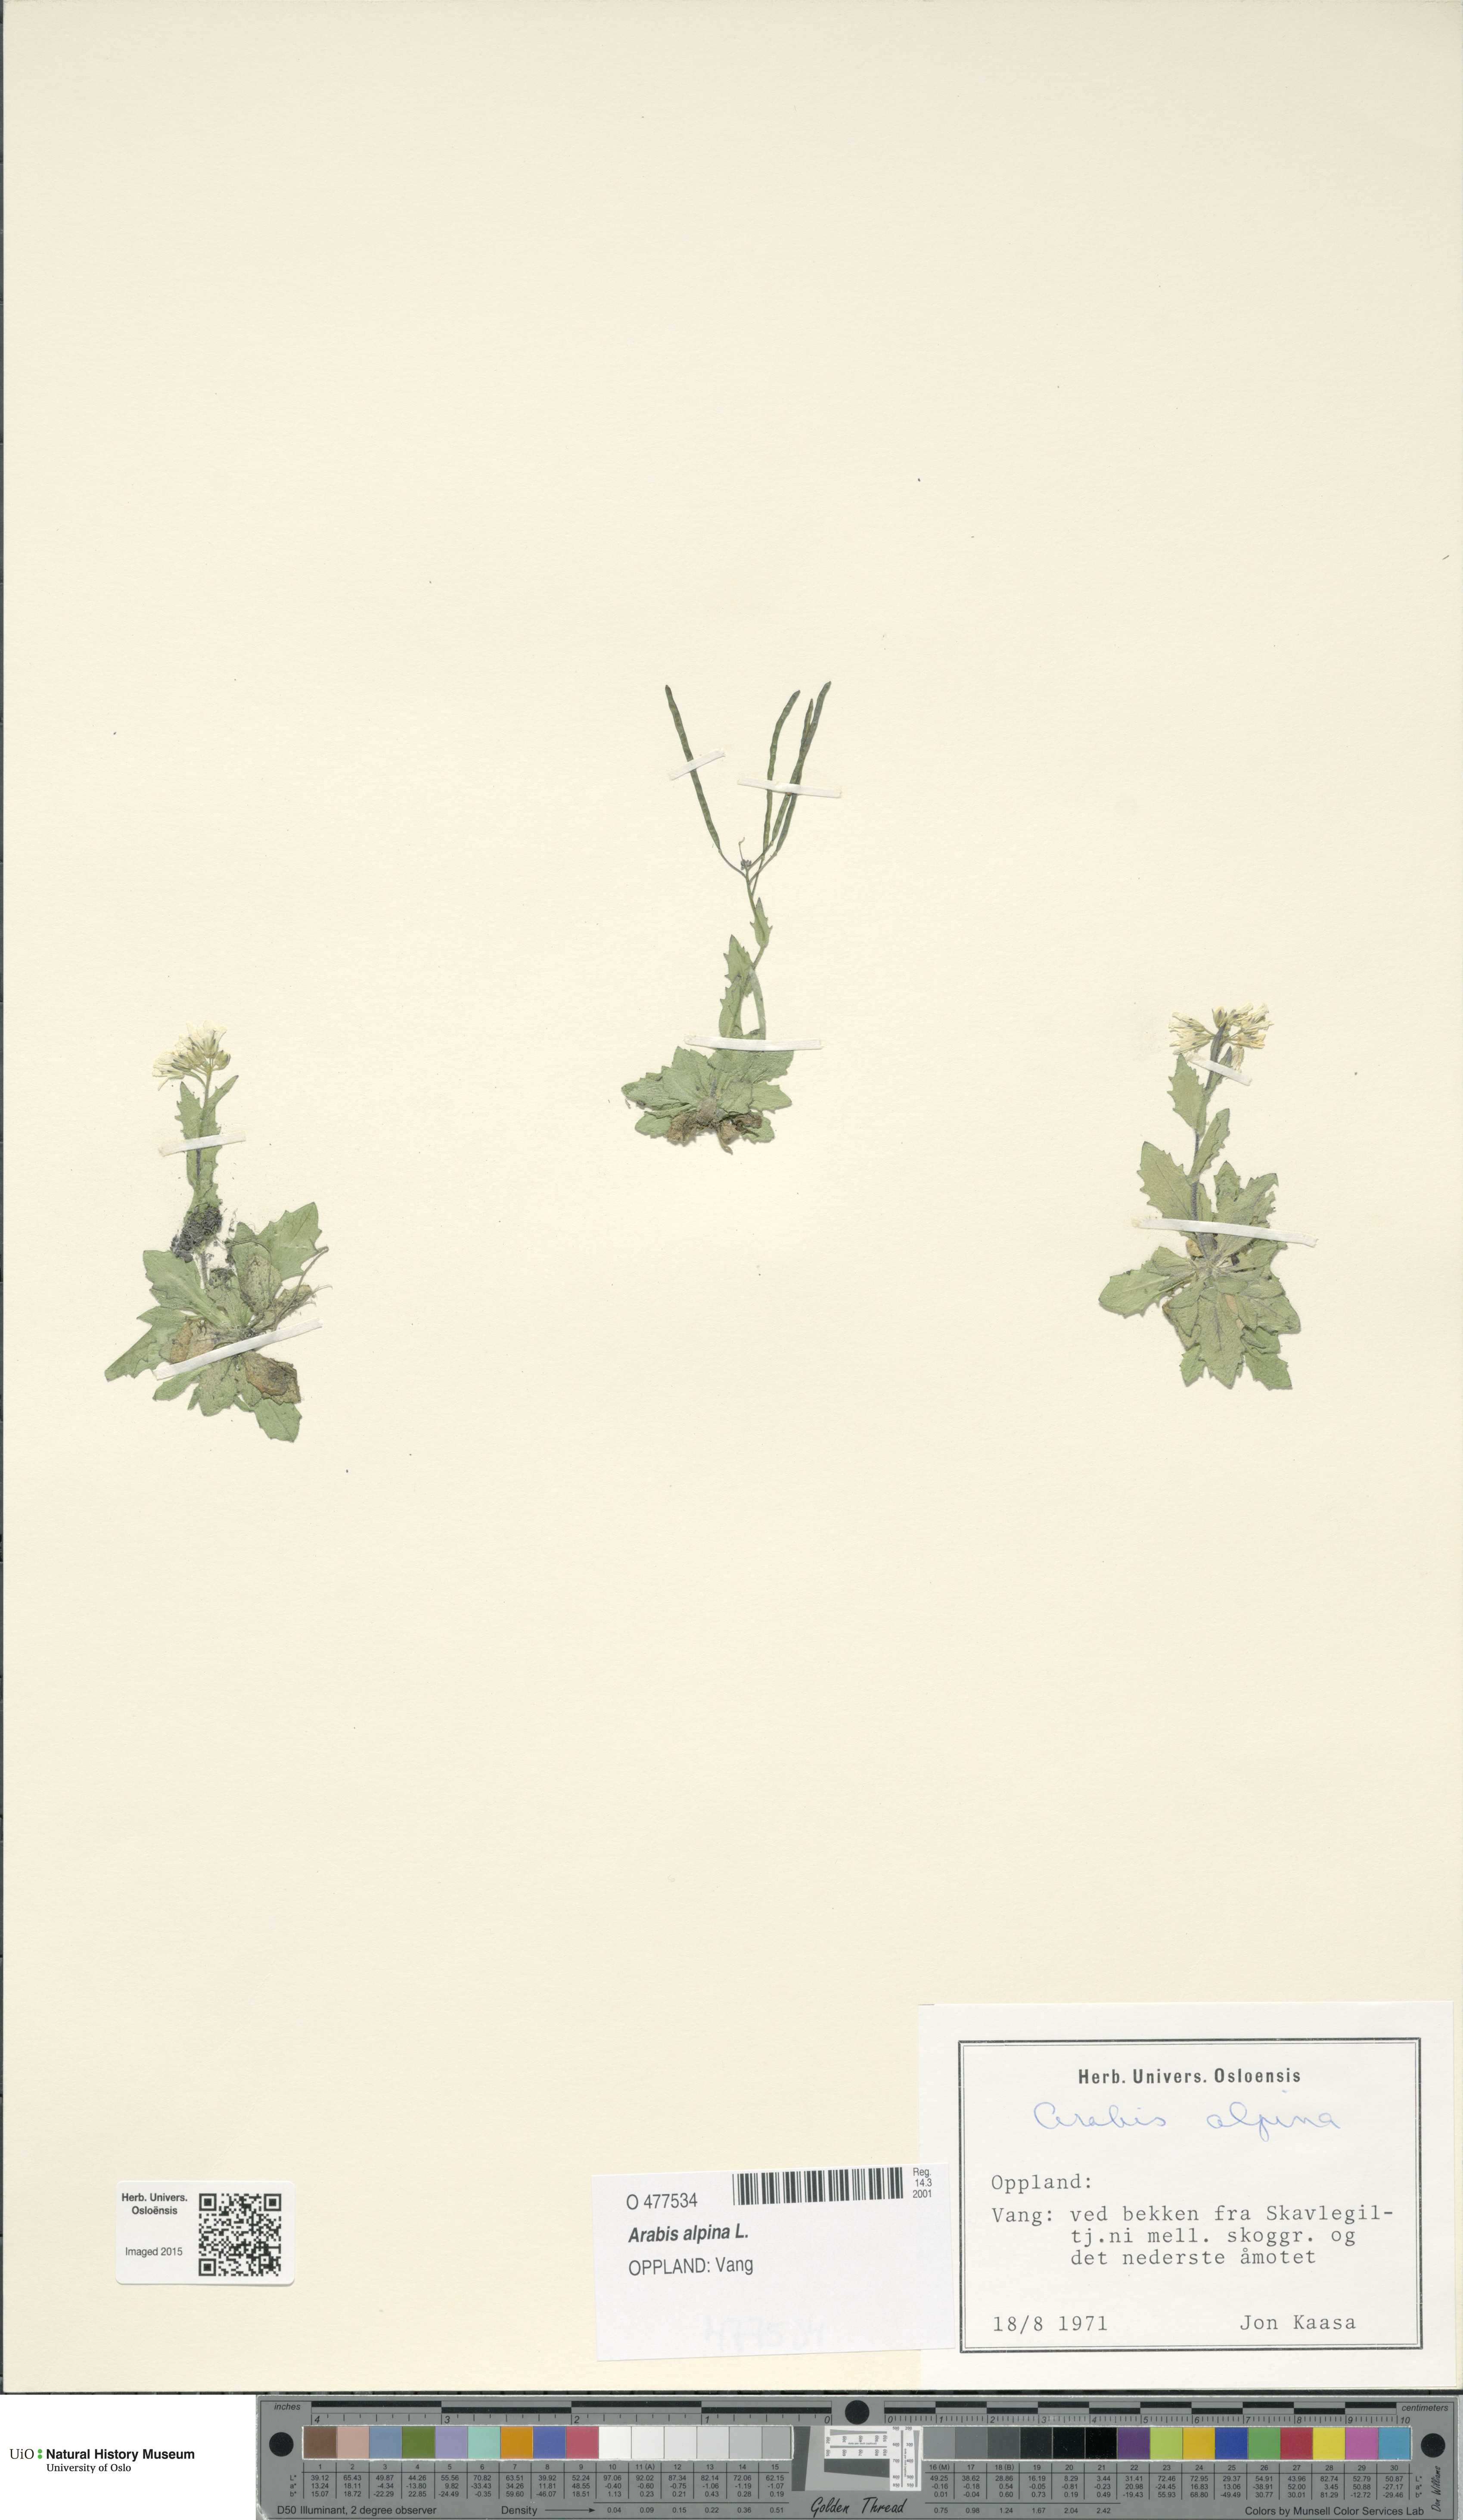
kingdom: Plantae
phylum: Tracheophyta
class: Magnoliopsida
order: Brassicales
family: Brassicaceae
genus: Arabis
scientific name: Arabis alpina
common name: Alpine rock-cress
